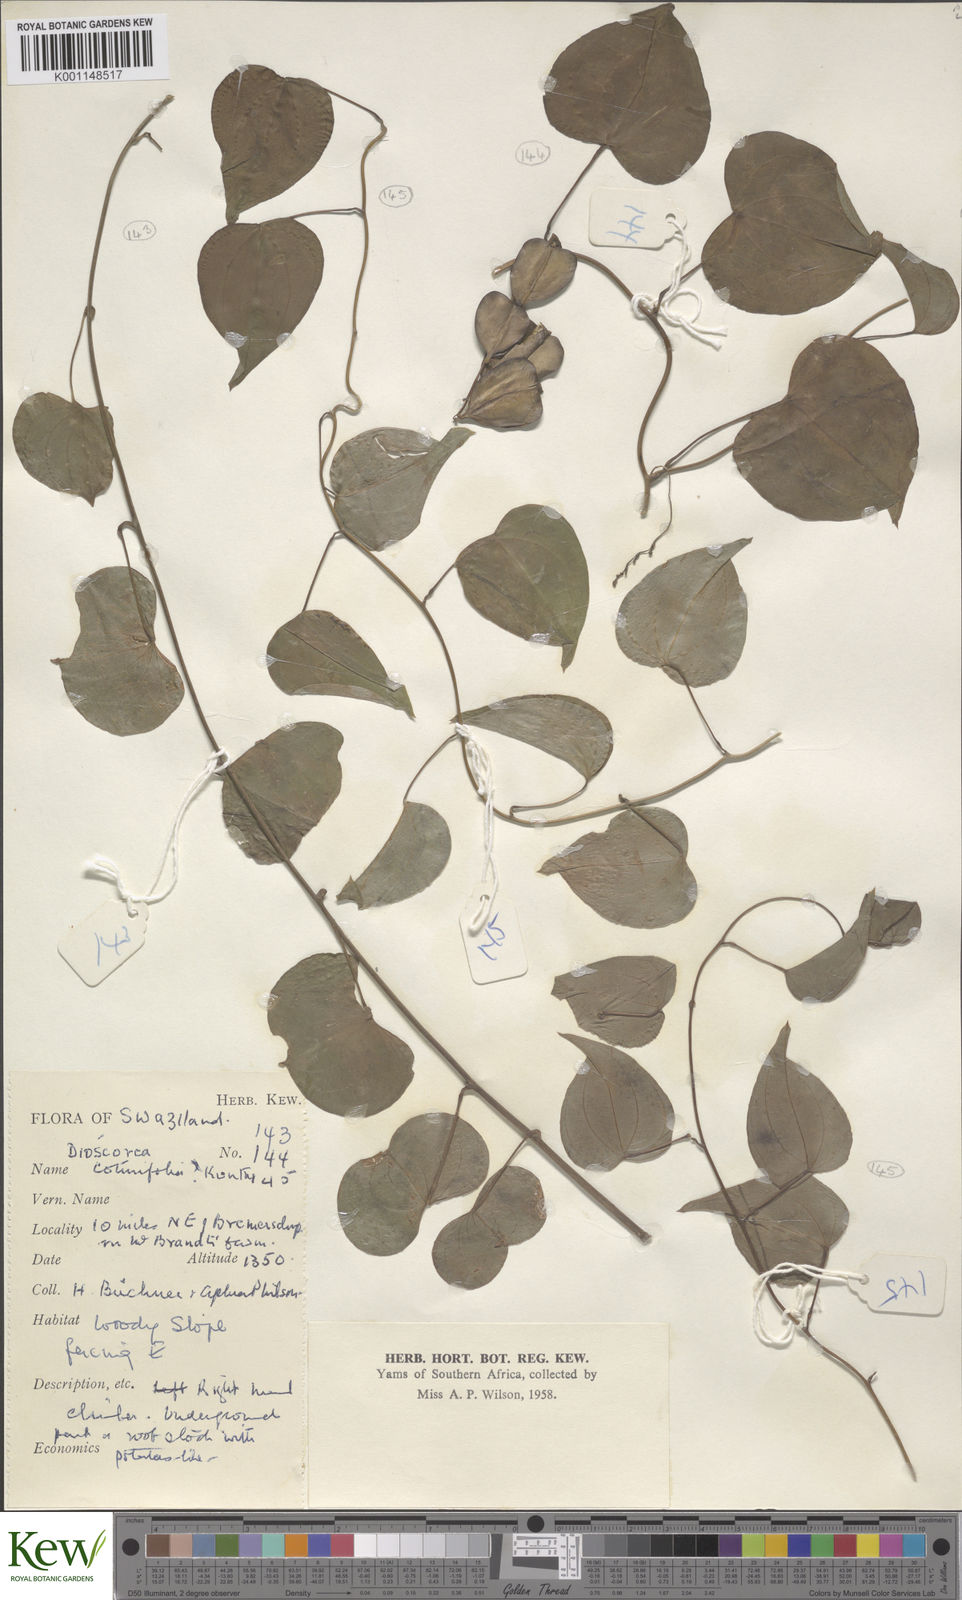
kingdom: Plantae
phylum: Tracheophyta
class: Liliopsida
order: Dioscoreales
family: Dioscoreaceae
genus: Dioscorea
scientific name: Dioscorea cotinifolia
